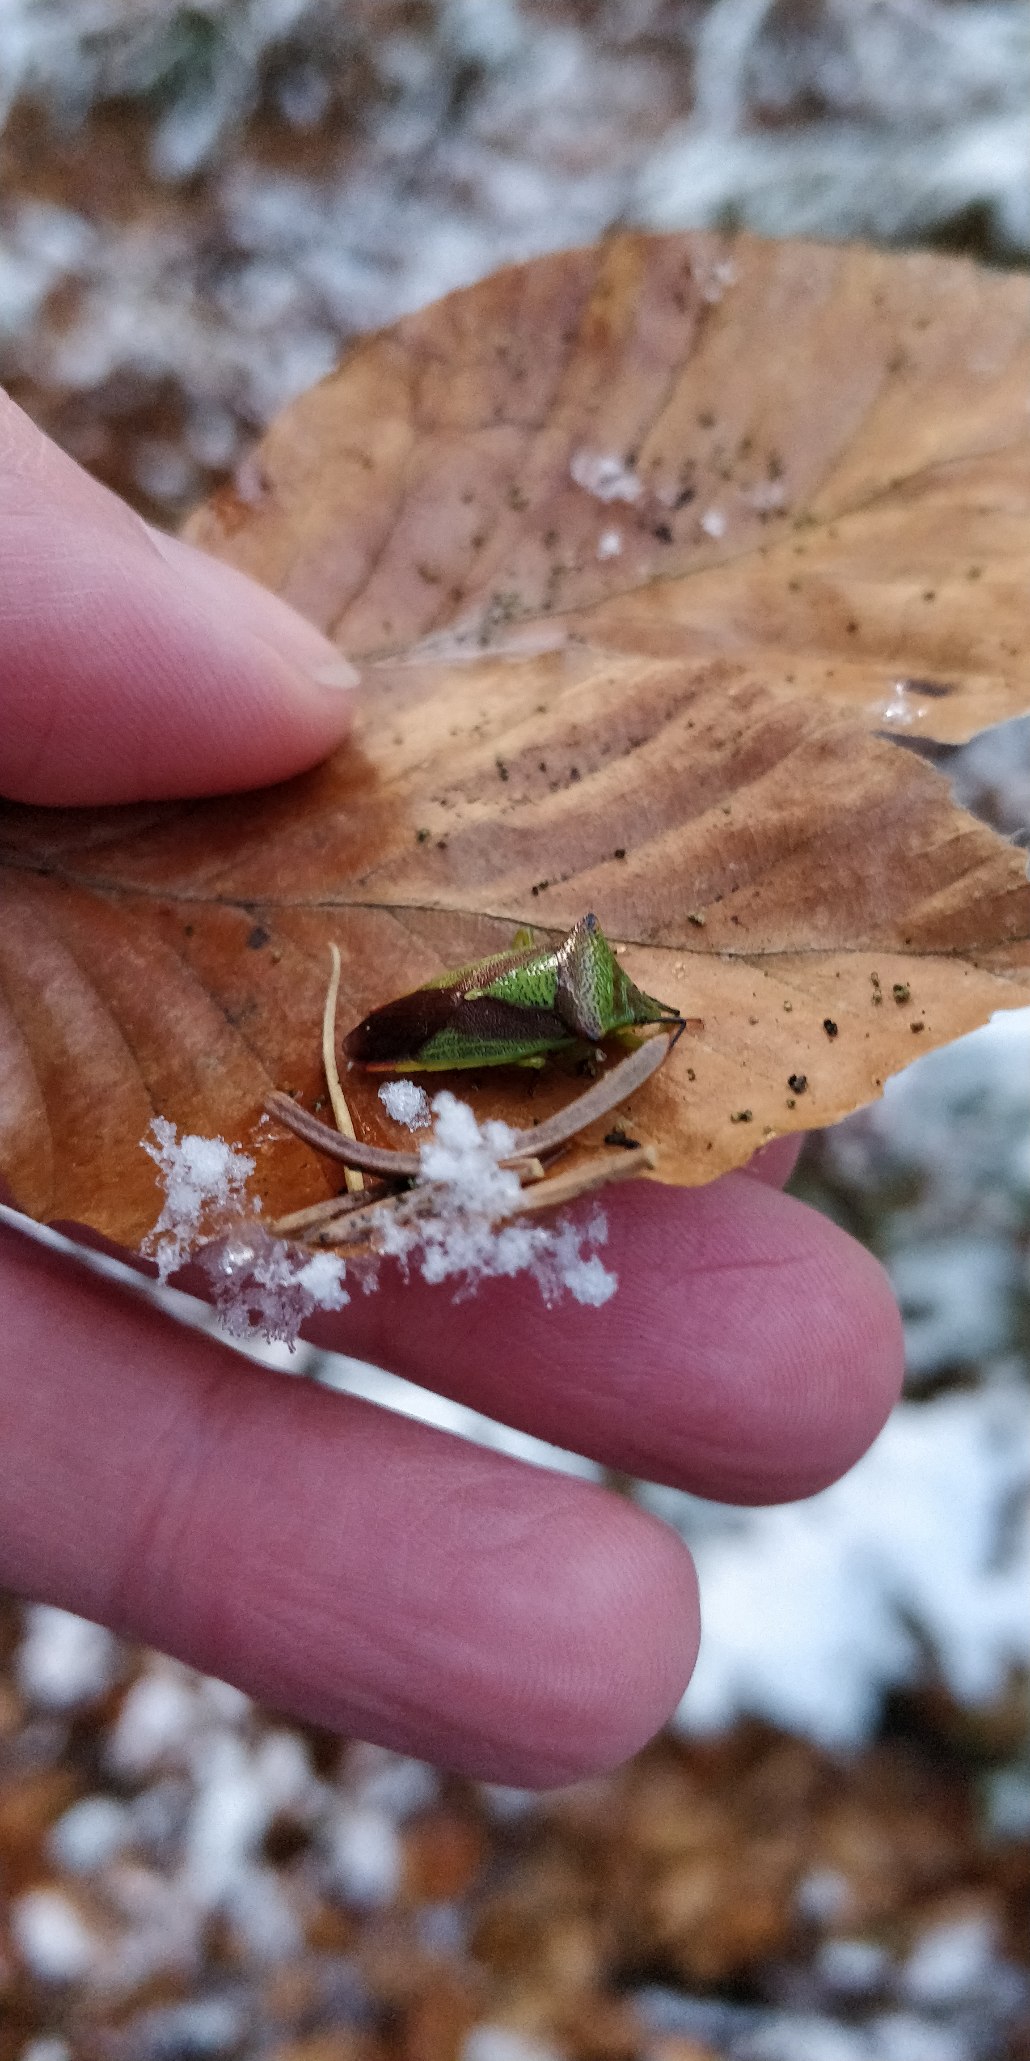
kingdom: Animalia
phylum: Arthropoda
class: Insecta
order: Hemiptera
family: Acanthosomatidae
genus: Acanthosoma
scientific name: Acanthosoma haemorrhoidale
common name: Stor løvtæge
